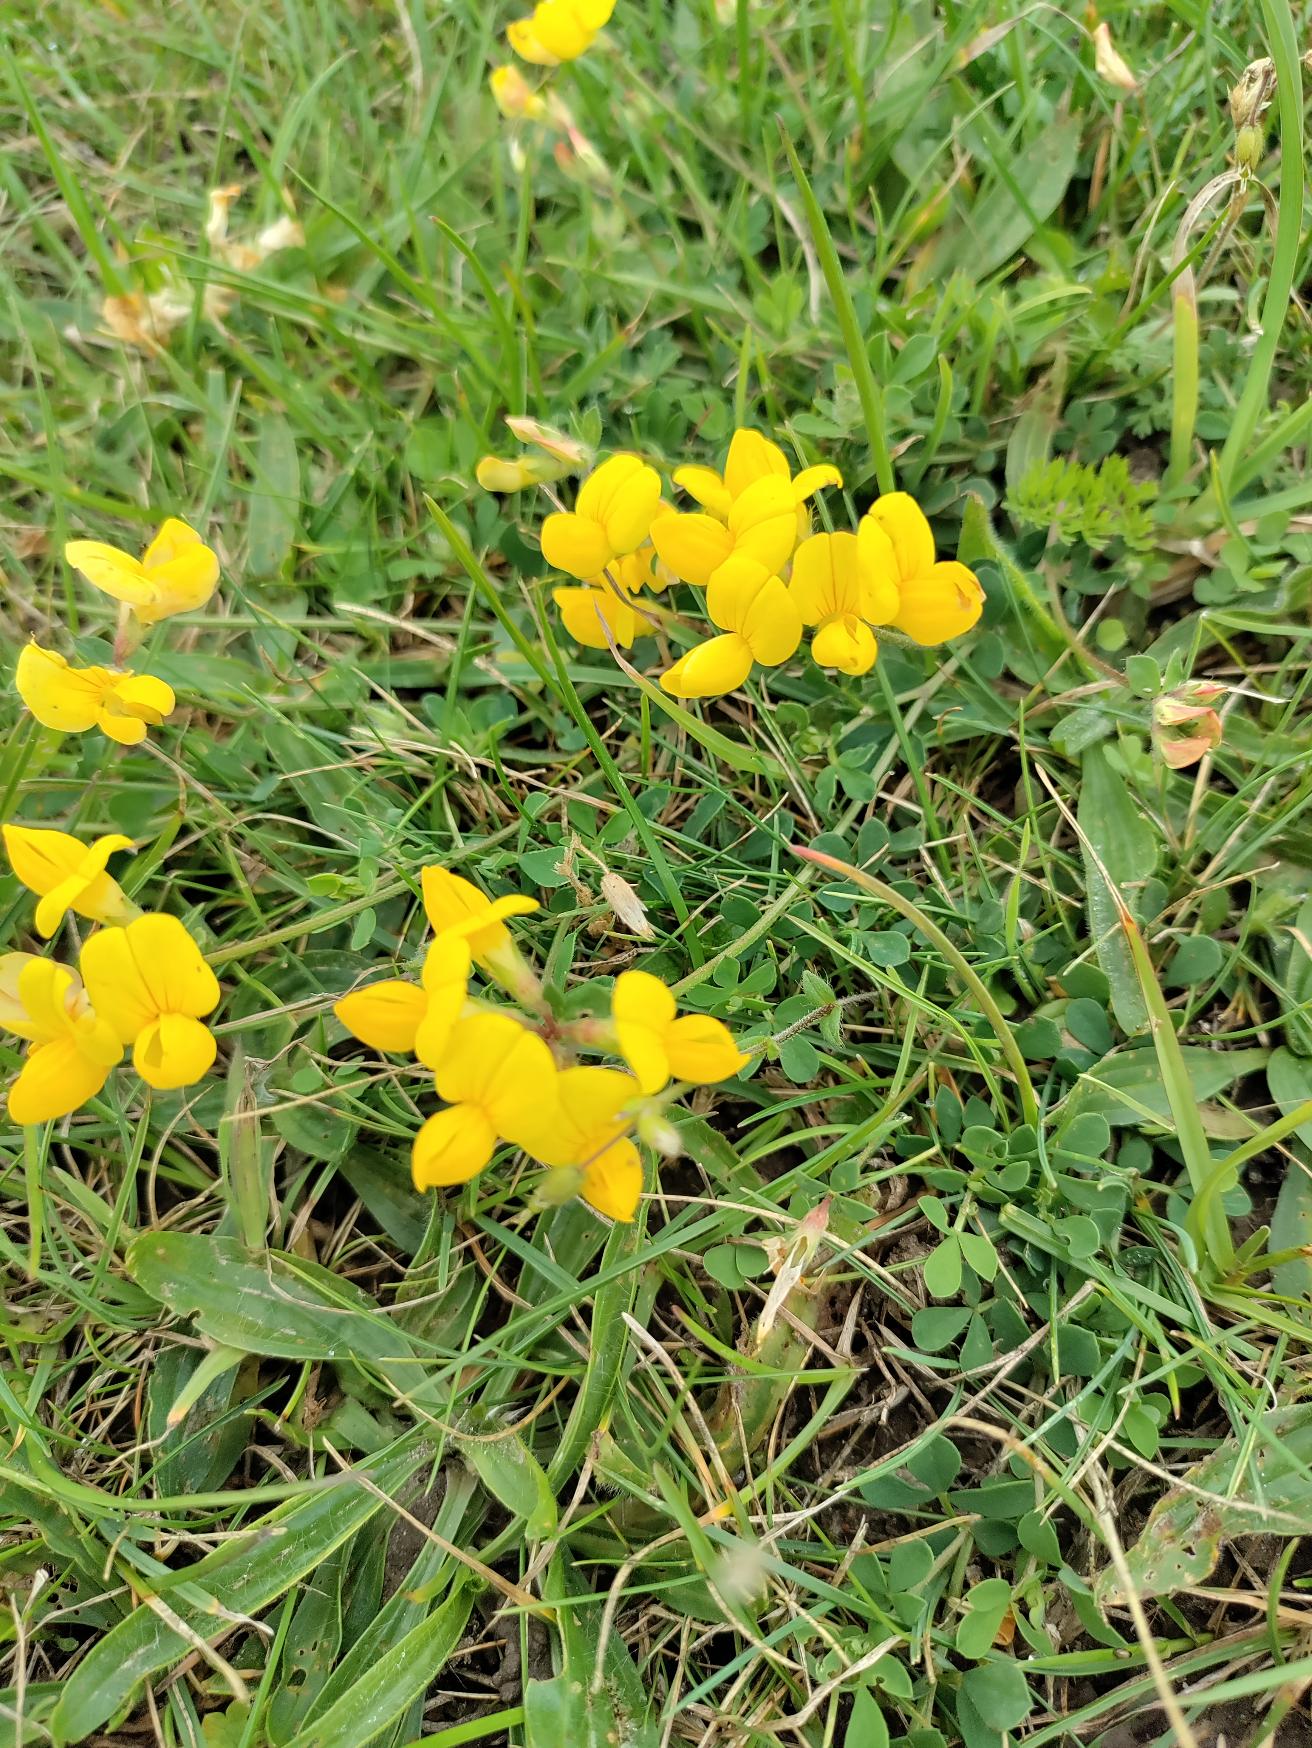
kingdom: Plantae
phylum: Tracheophyta
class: Magnoliopsida
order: Fabales
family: Fabaceae
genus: Lotus
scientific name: Lotus corniculatus
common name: Almindelig kællingetand
